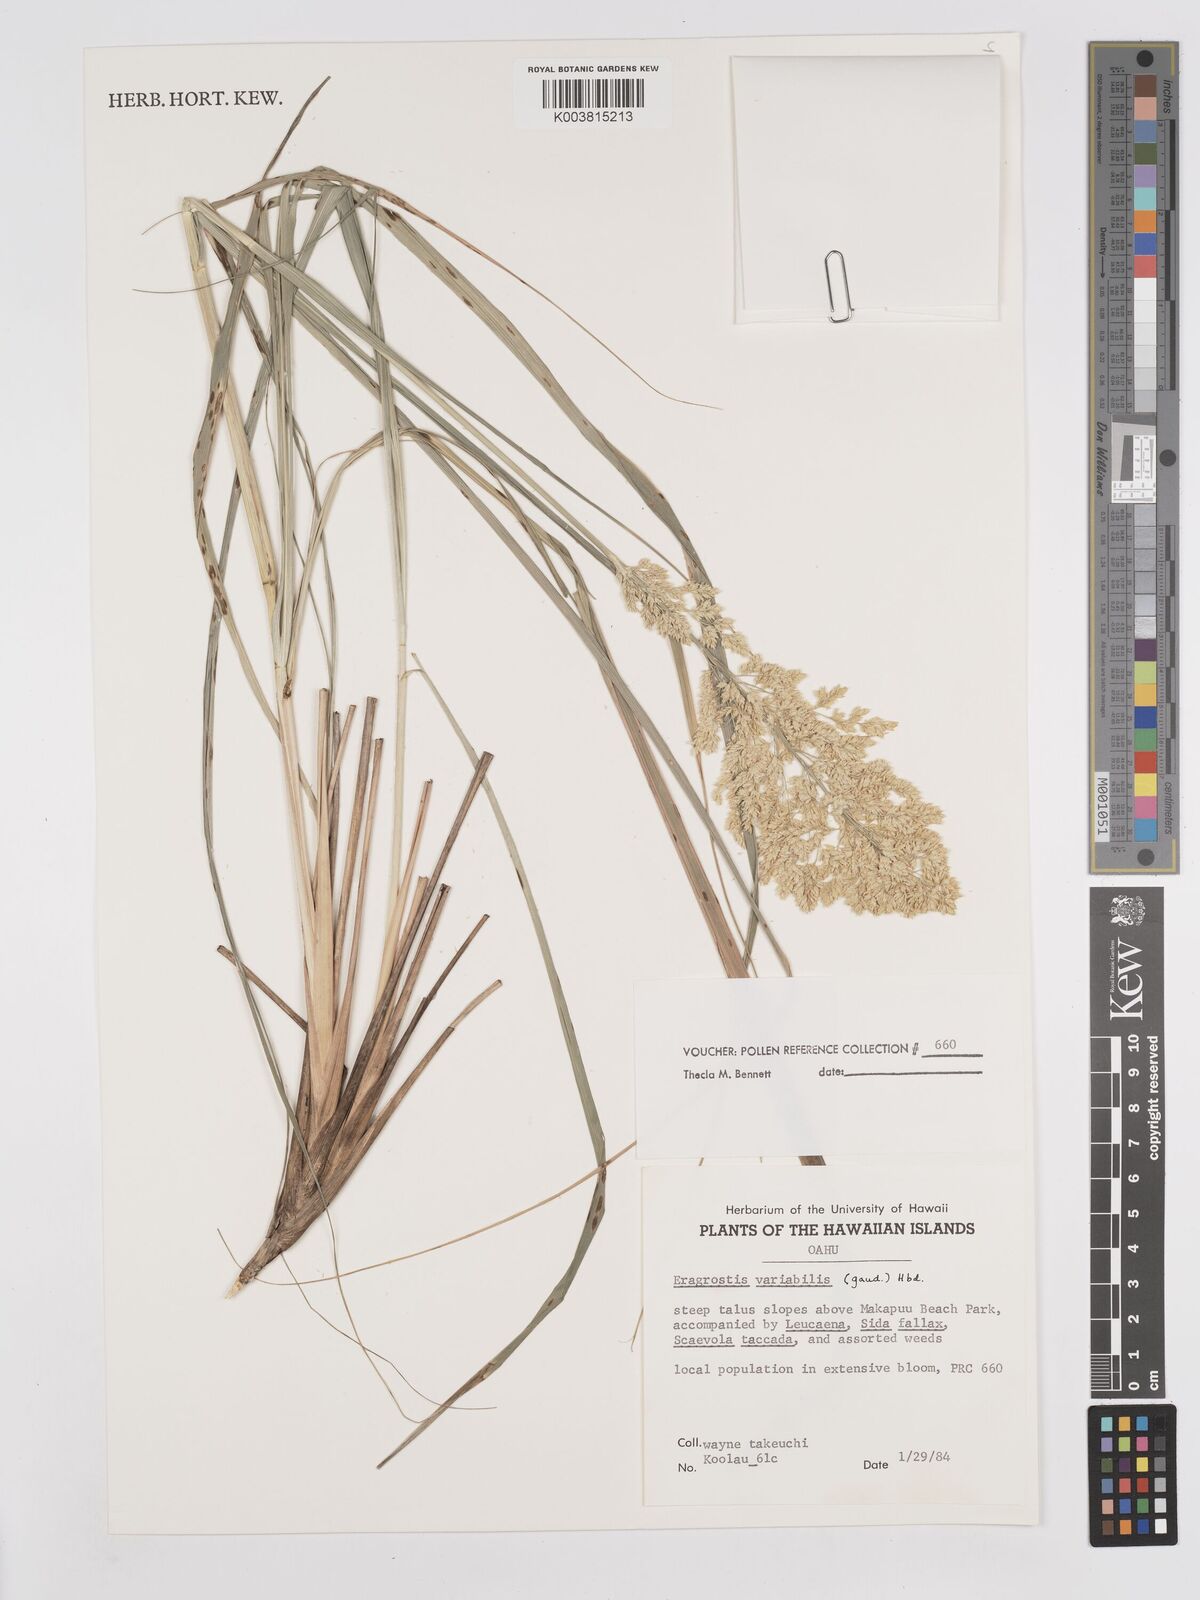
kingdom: Plantae
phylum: Tracheophyta
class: Liliopsida
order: Poales
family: Poaceae
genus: Eragrostis
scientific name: Eragrostis variabilis
